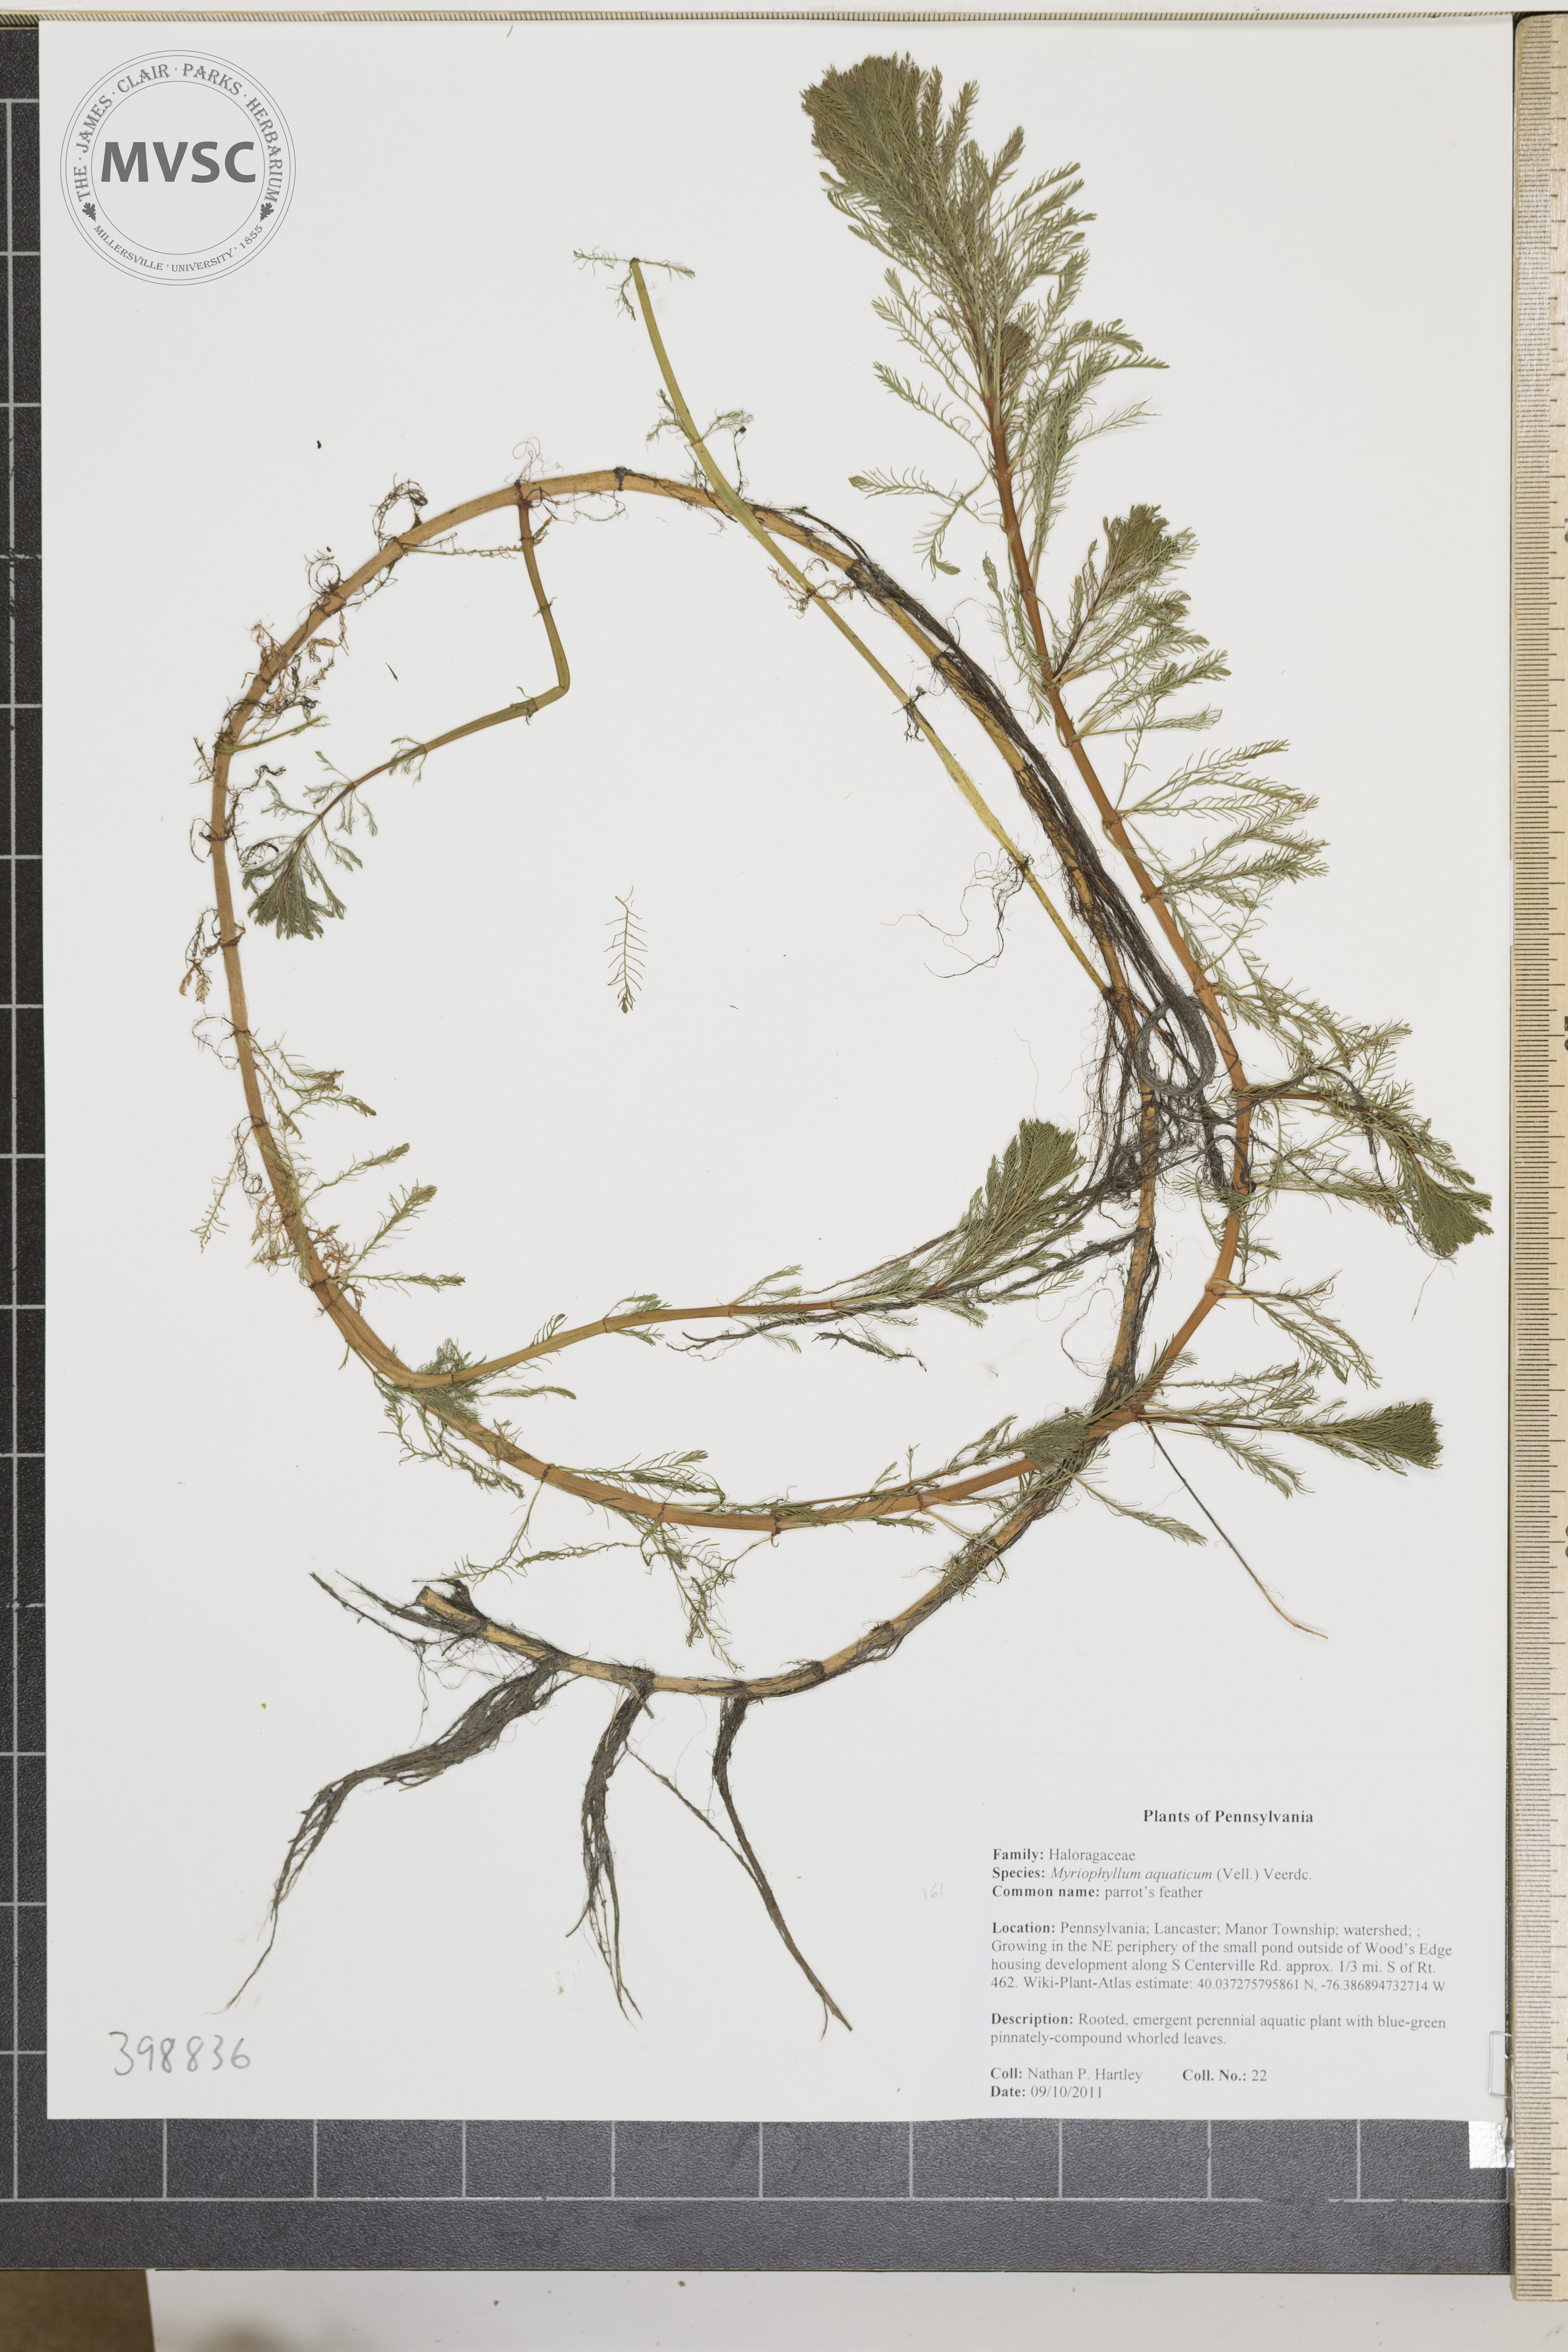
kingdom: Plantae
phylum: Tracheophyta
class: Magnoliopsida
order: Saxifragales
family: Haloragaceae
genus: Myriophyllum
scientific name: Myriophyllum aquaticum
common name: Parrot's-feather
